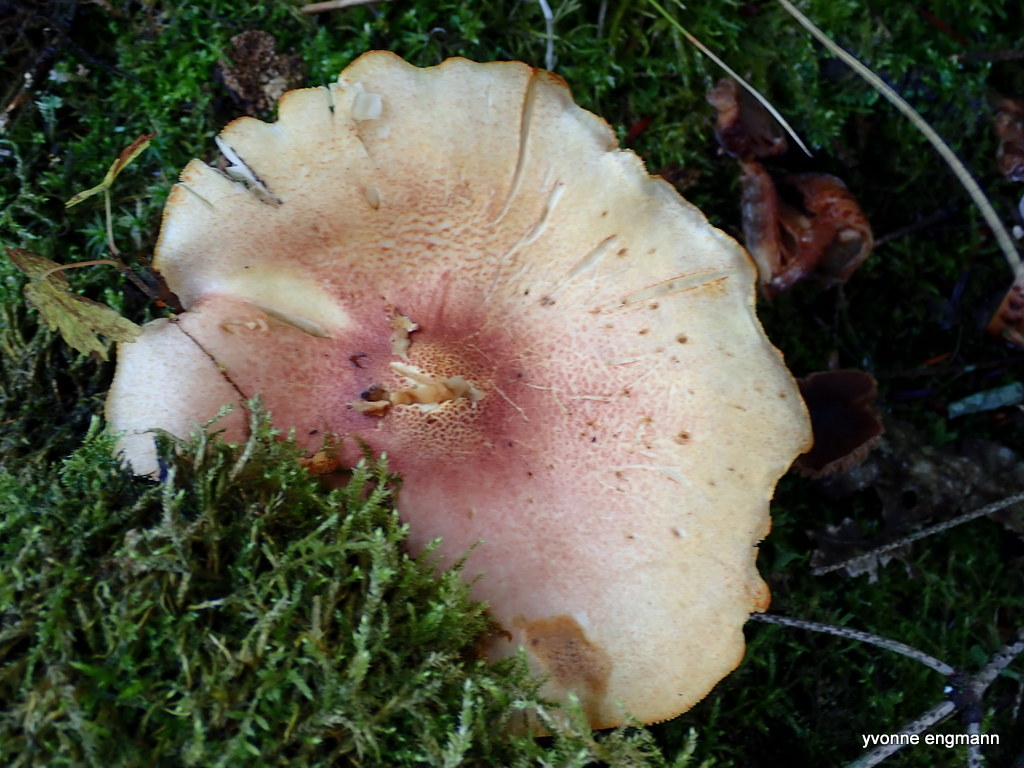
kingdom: Fungi
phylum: Basidiomycota
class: Agaricomycetes
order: Agaricales
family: Tricholomataceae
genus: Tricholomopsis
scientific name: Tricholomopsis rutilans
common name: purpur-væbnerhat
